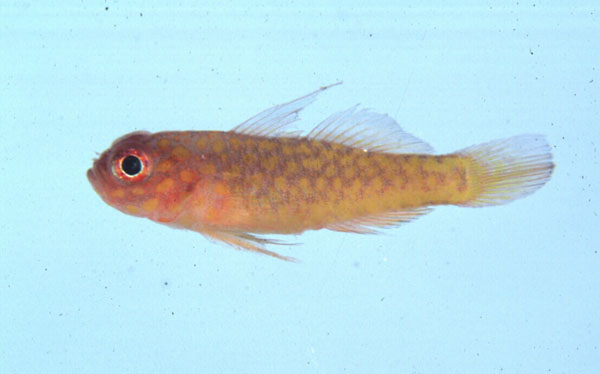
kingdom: Animalia
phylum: Chordata
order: Perciformes
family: Gobiidae
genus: Trimma
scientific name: Trimma flammeum
